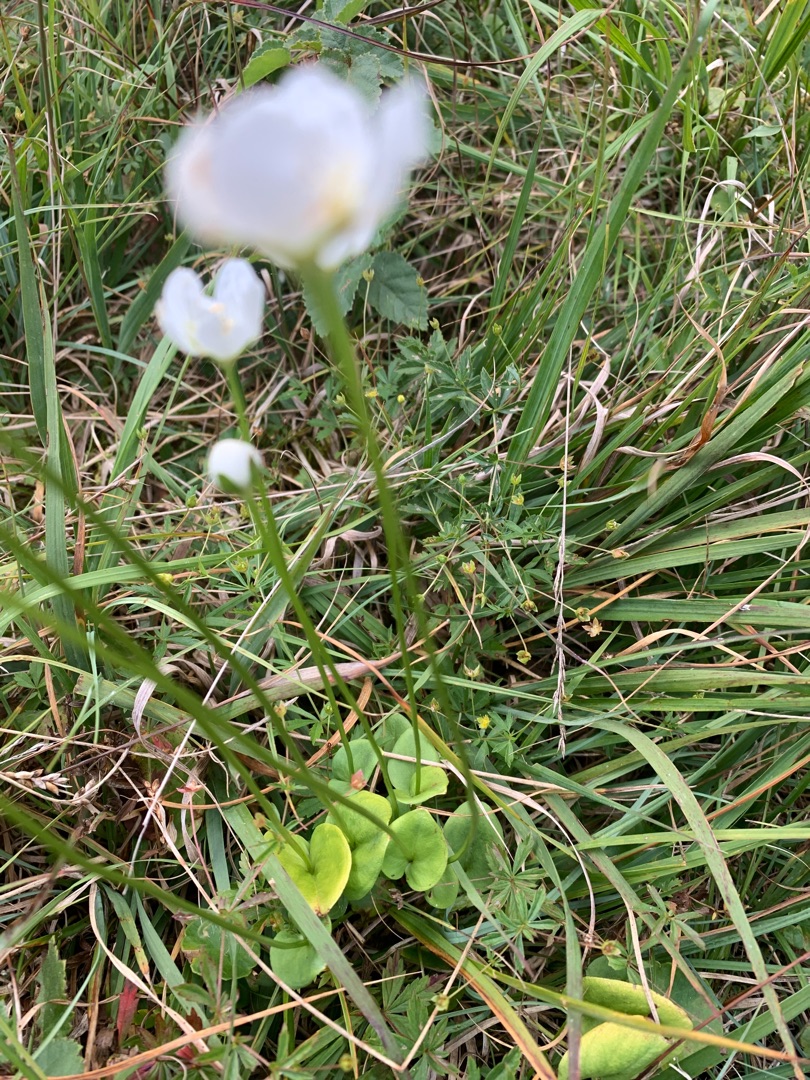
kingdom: Plantae
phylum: Tracheophyta
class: Magnoliopsida
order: Celastrales
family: Parnassiaceae
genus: Parnassia
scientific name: Parnassia palustris
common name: Leverurt
